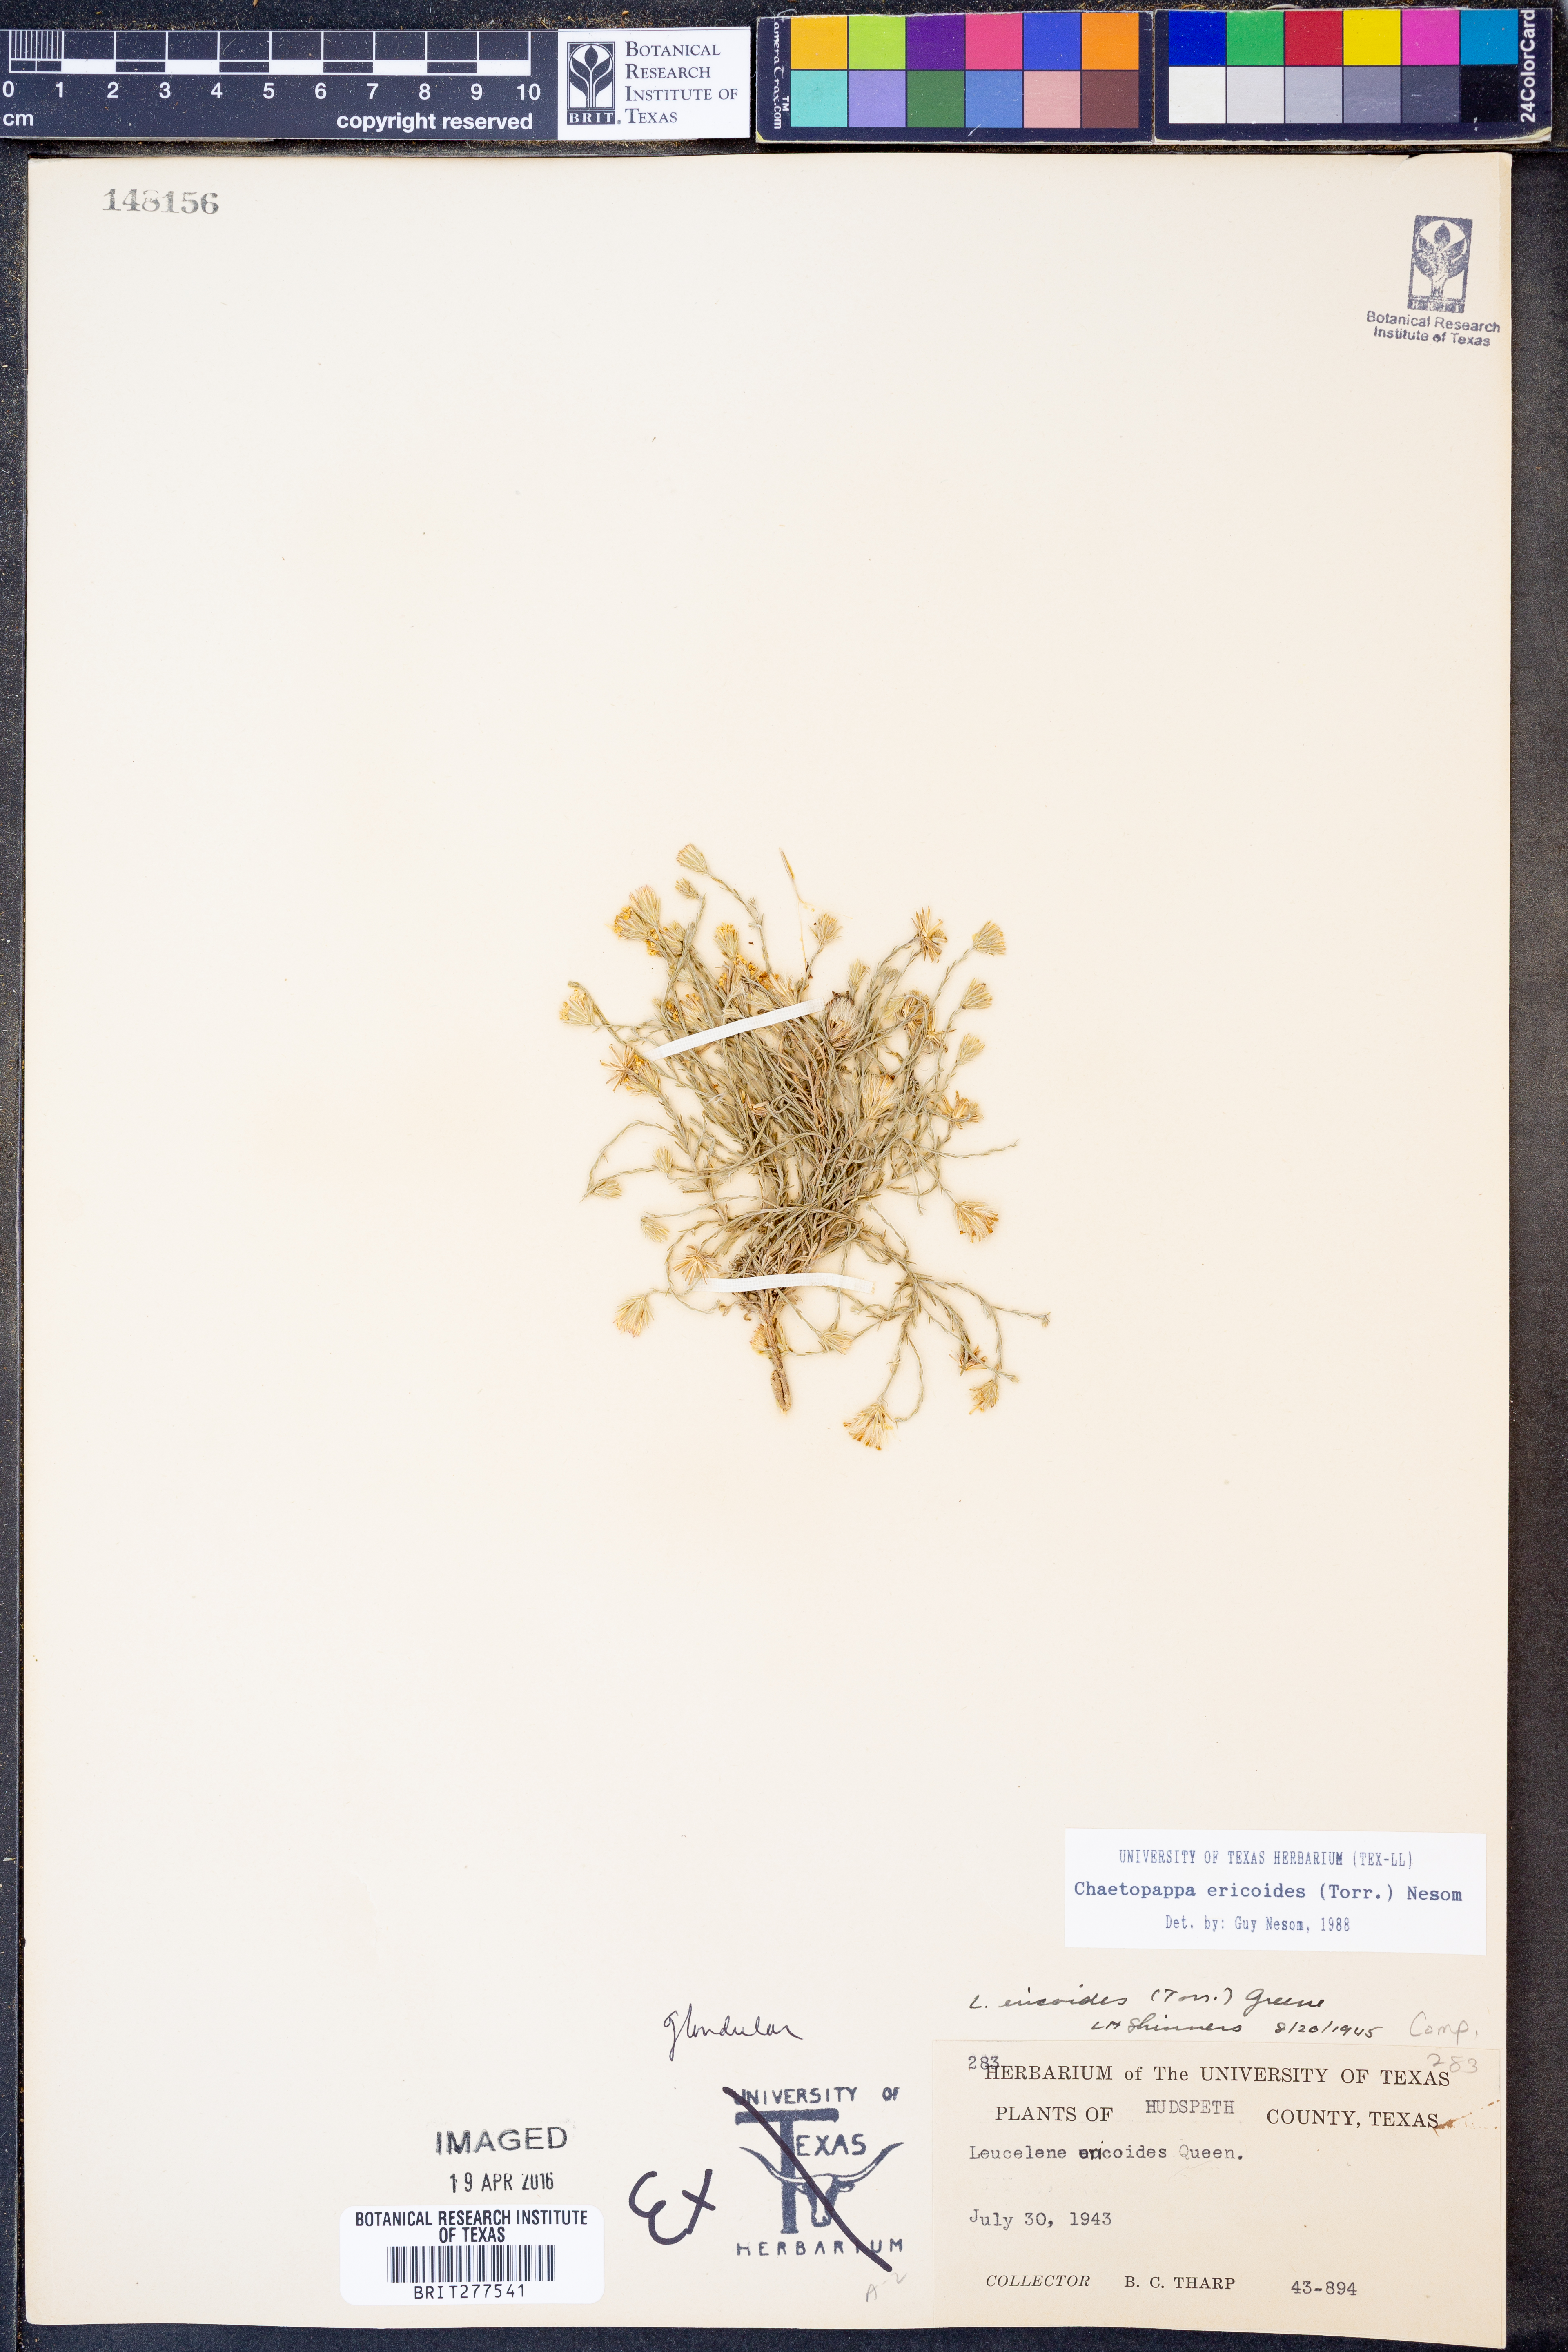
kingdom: Plantae
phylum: Tracheophyta
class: Magnoliopsida
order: Asterales
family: Asteraceae
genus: Chaetopappa
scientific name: Chaetopappa ericoides
